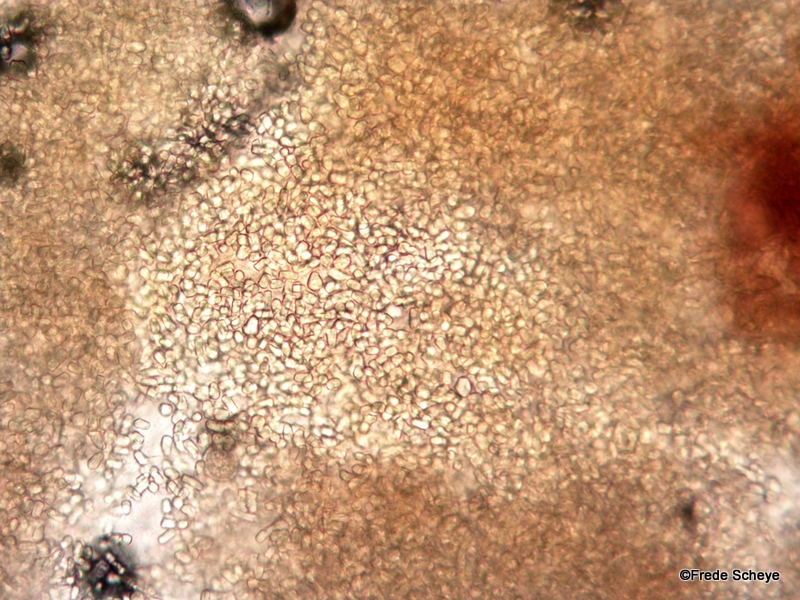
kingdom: Fungi
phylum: Basidiomycota
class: Agaricomycetes
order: Agaricales
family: Tricholomataceae
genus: Cystoderma
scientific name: Cystoderma jasonis
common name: gulkødet grynhat
